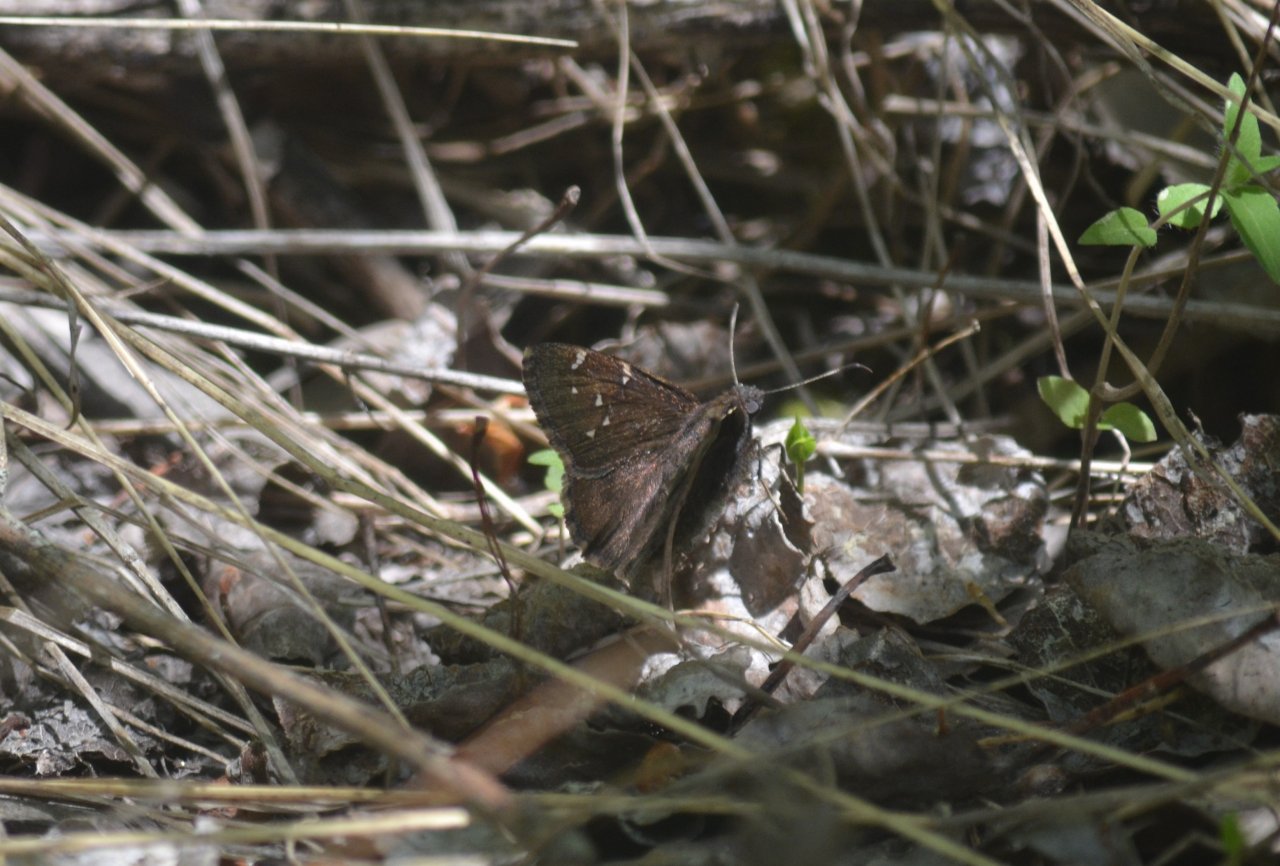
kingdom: Animalia
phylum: Arthropoda
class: Insecta
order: Lepidoptera
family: Hesperiidae
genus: Autochton
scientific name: Autochton
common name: Northern Cloudywing
